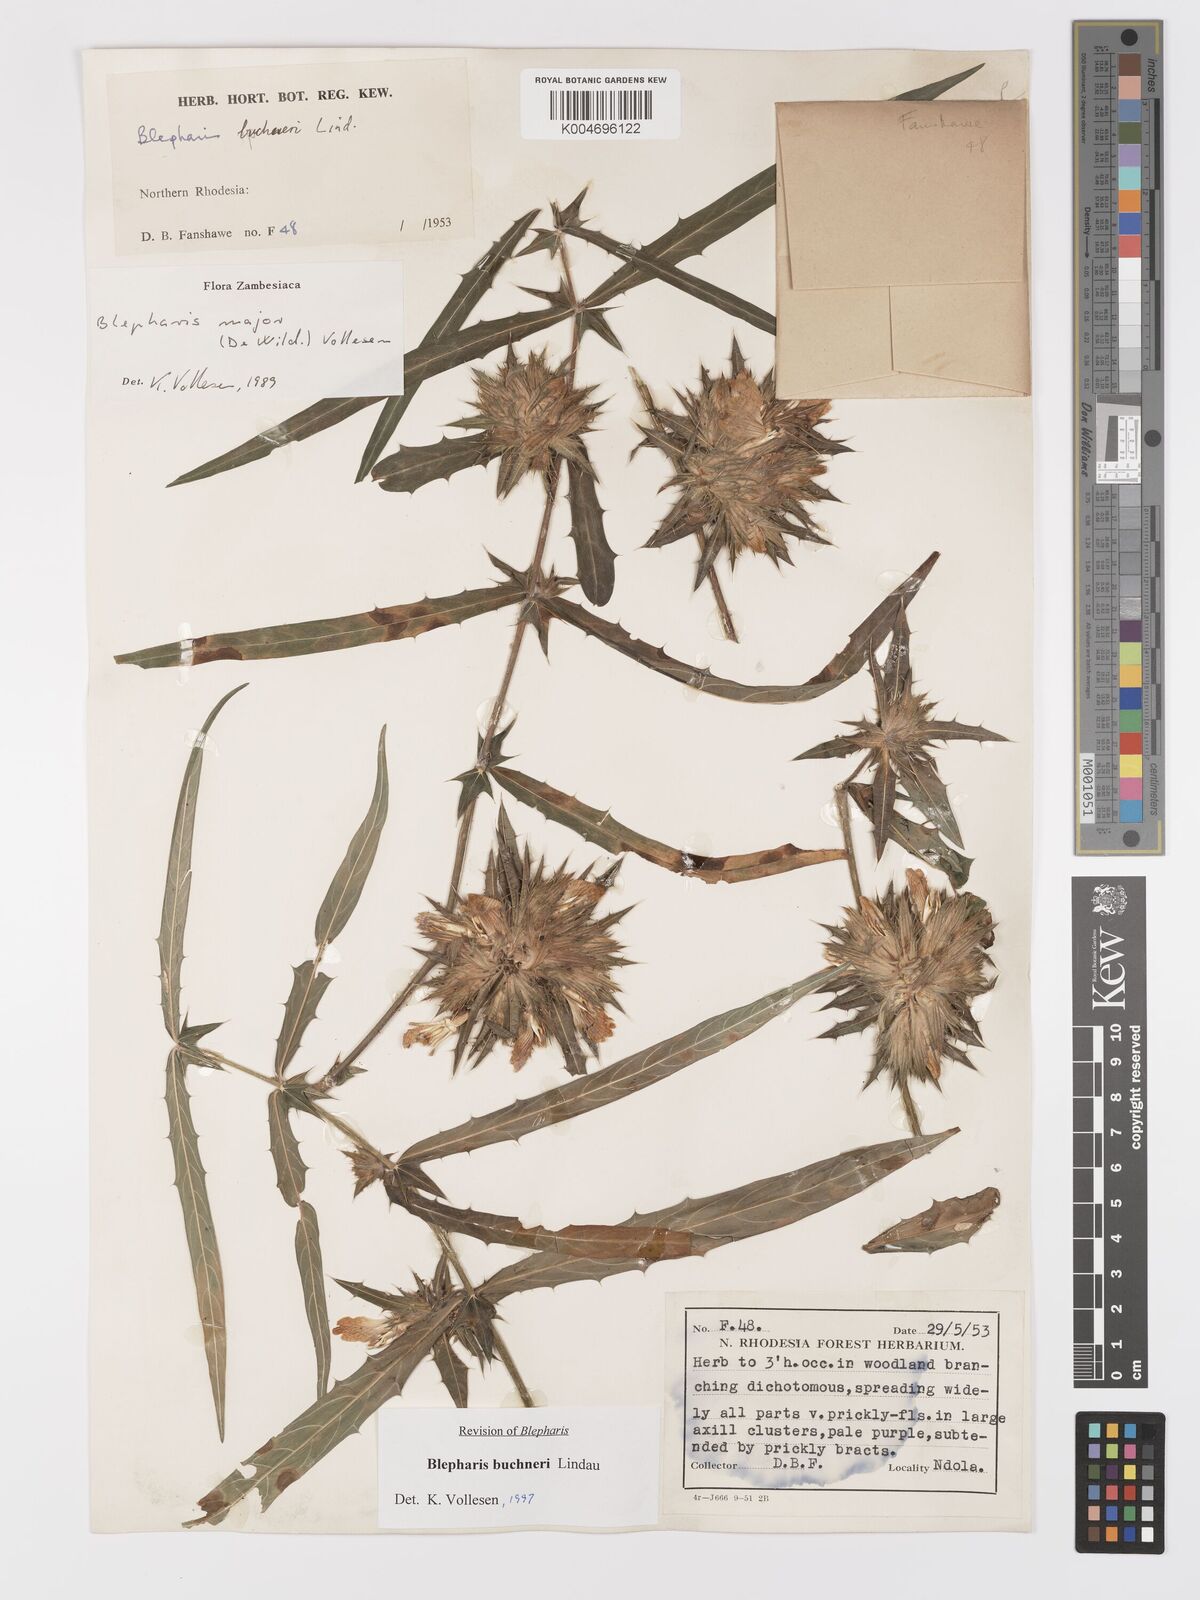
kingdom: Plantae
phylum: Tracheophyta
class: Magnoliopsida
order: Lamiales
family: Acanthaceae
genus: Blepharis
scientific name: Blepharis buchneri
